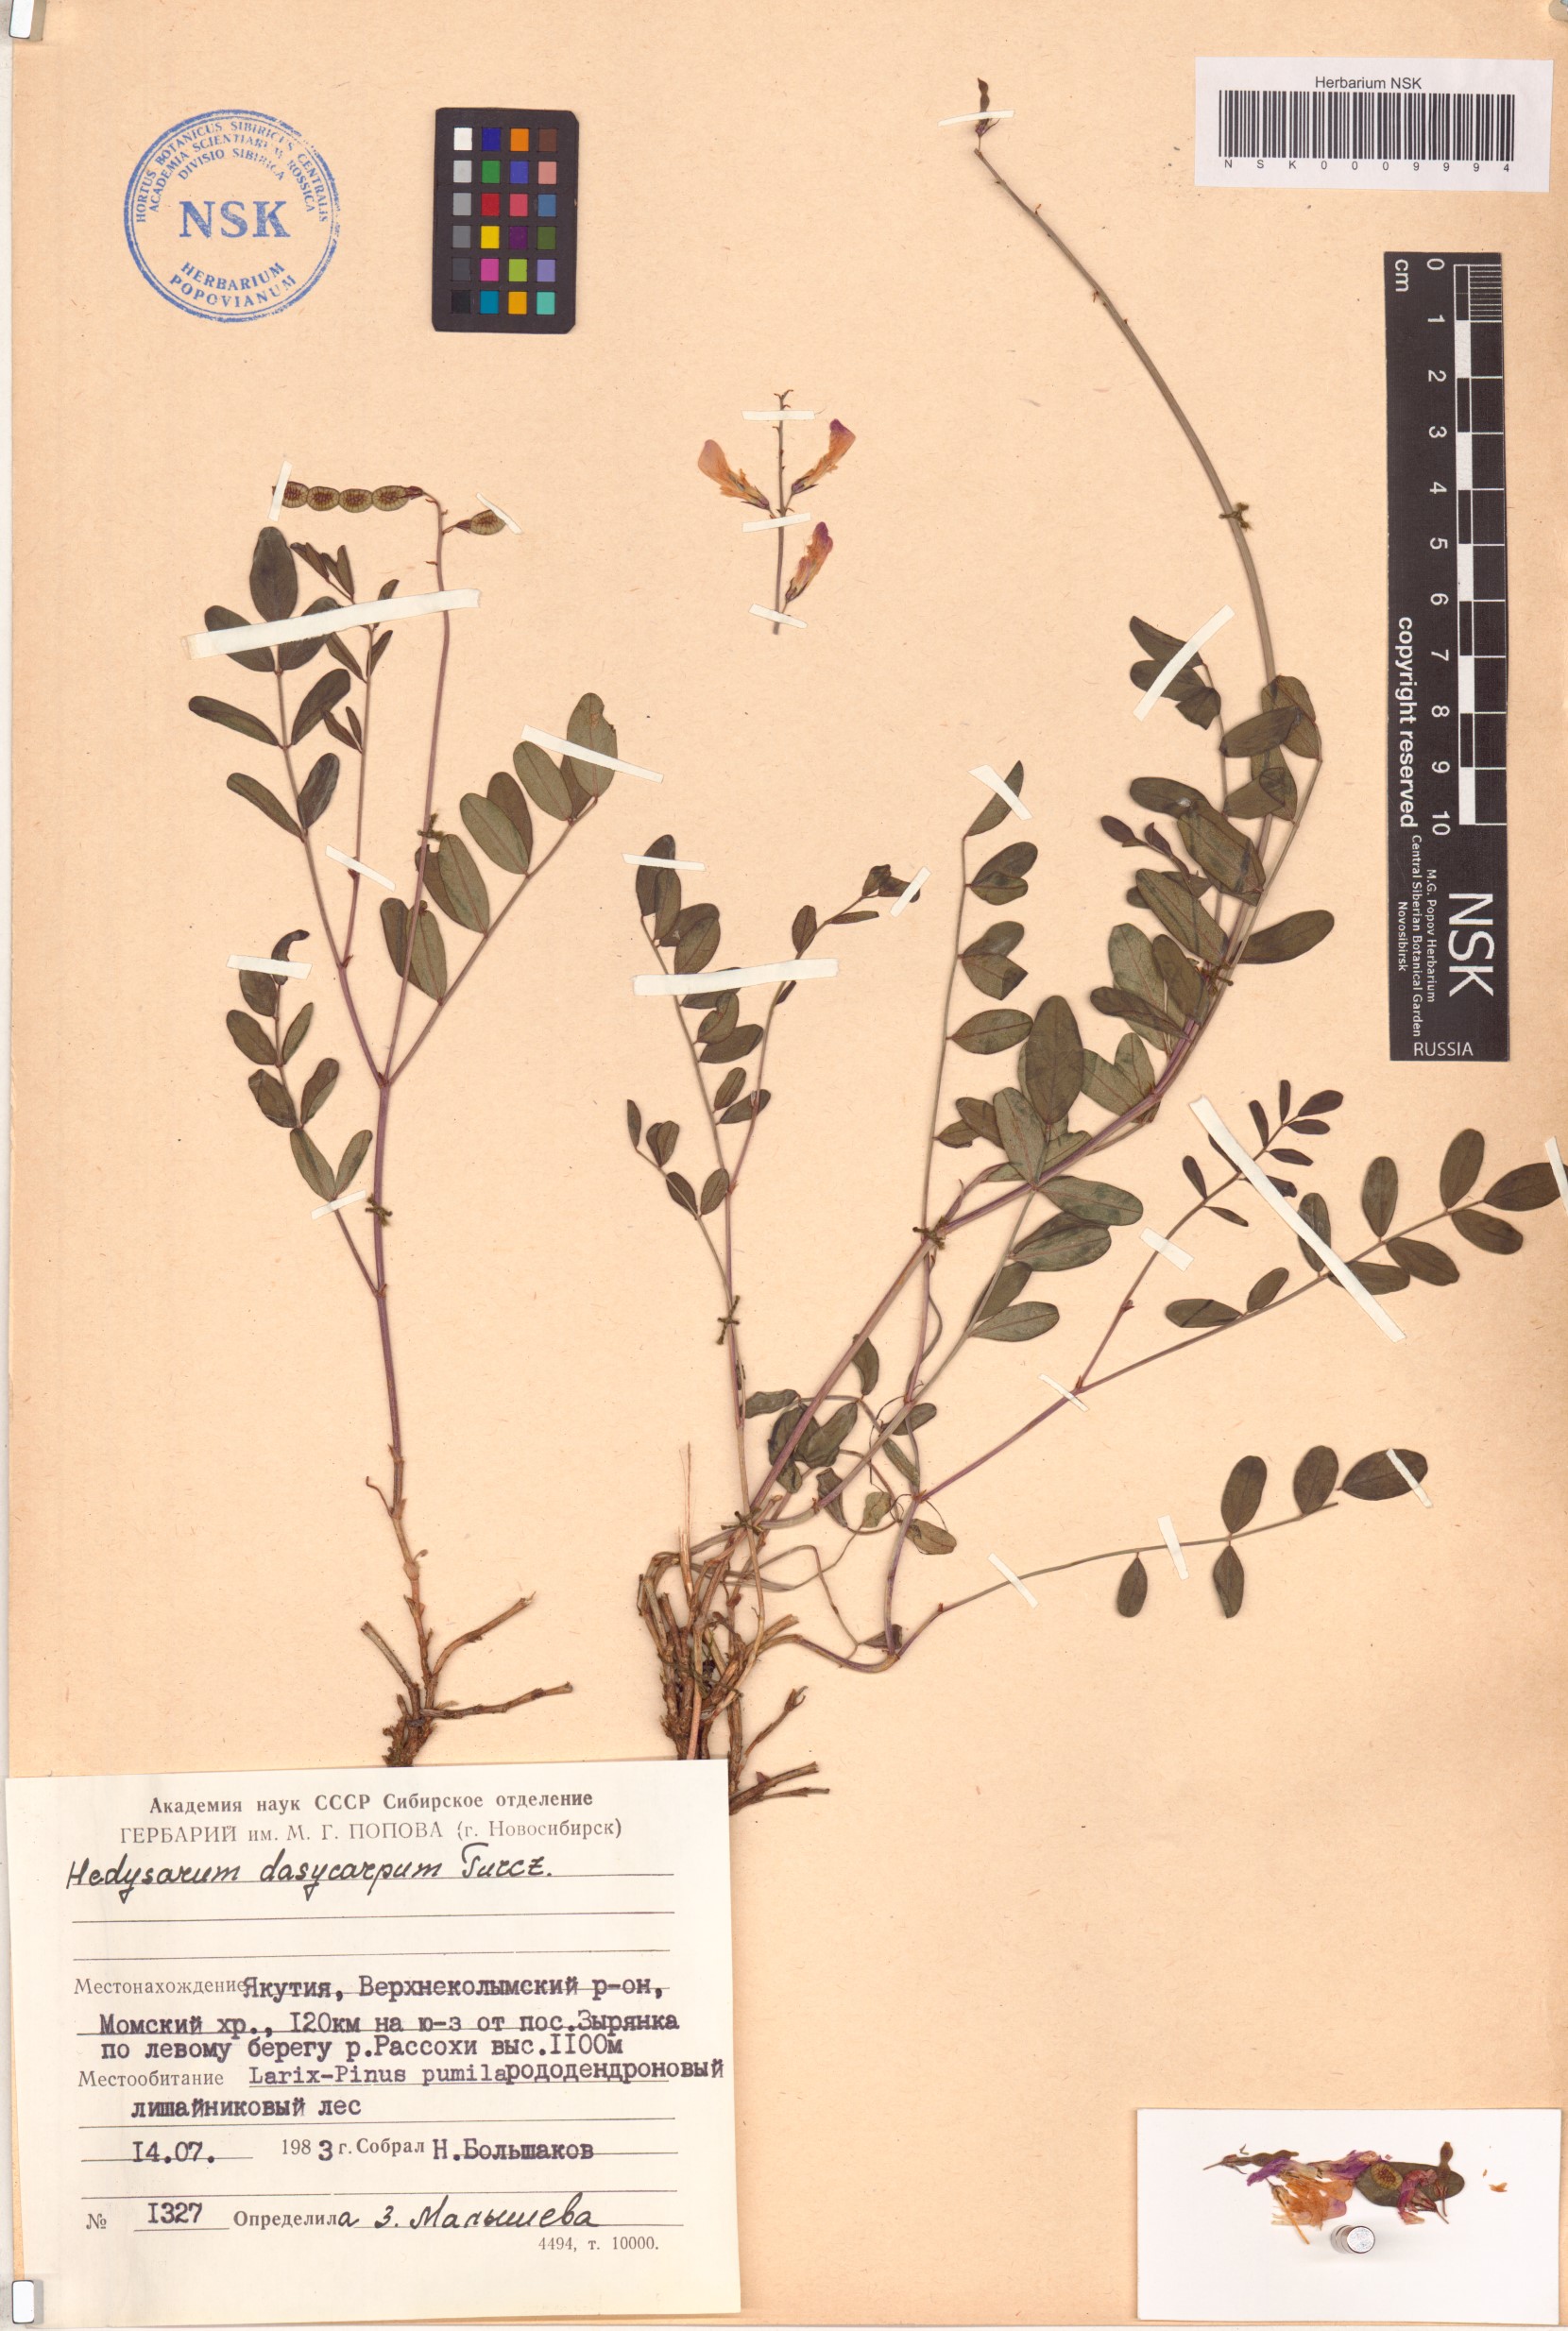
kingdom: Plantae
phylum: Tracheophyta
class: Magnoliopsida
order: Fabales
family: Fabaceae
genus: Hedysarum
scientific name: Hedysarum dasycarpum
